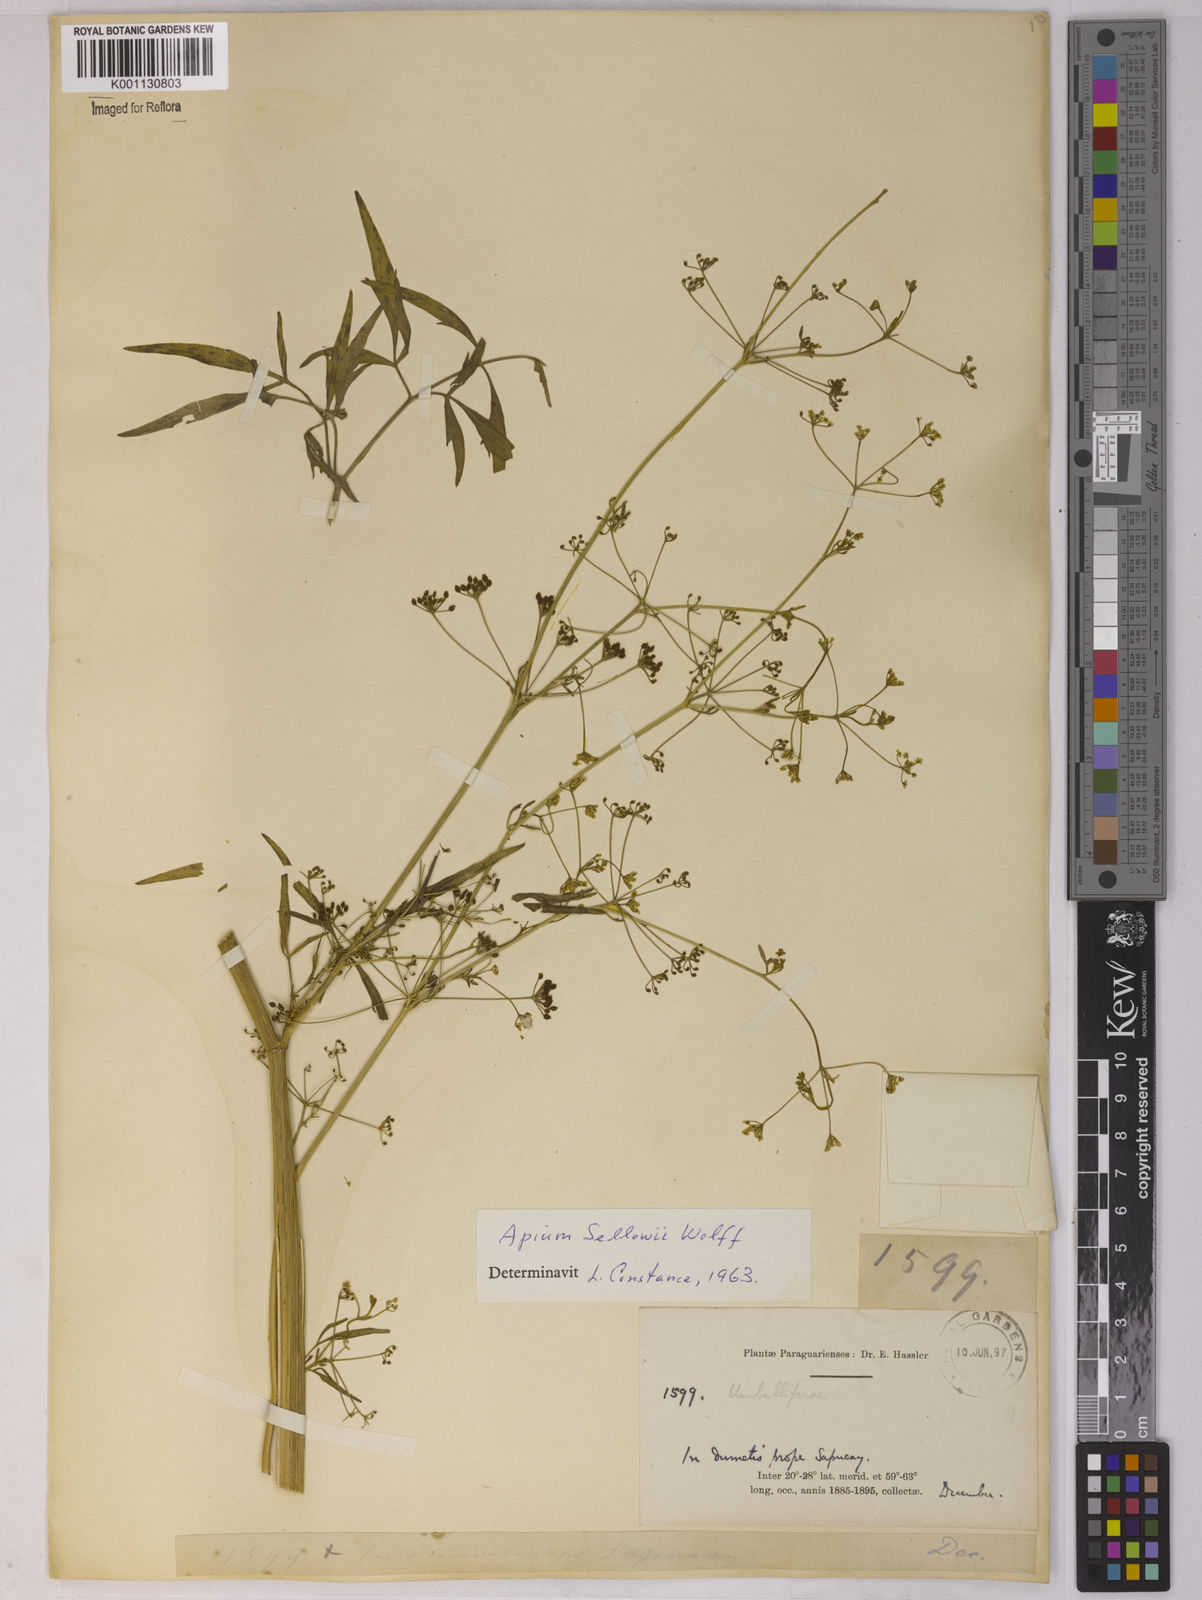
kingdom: Plantae
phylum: Tracheophyta
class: Magnoliopsida
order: Apiales
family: Apiaceae
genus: Apium
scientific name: Apium sellowianum
